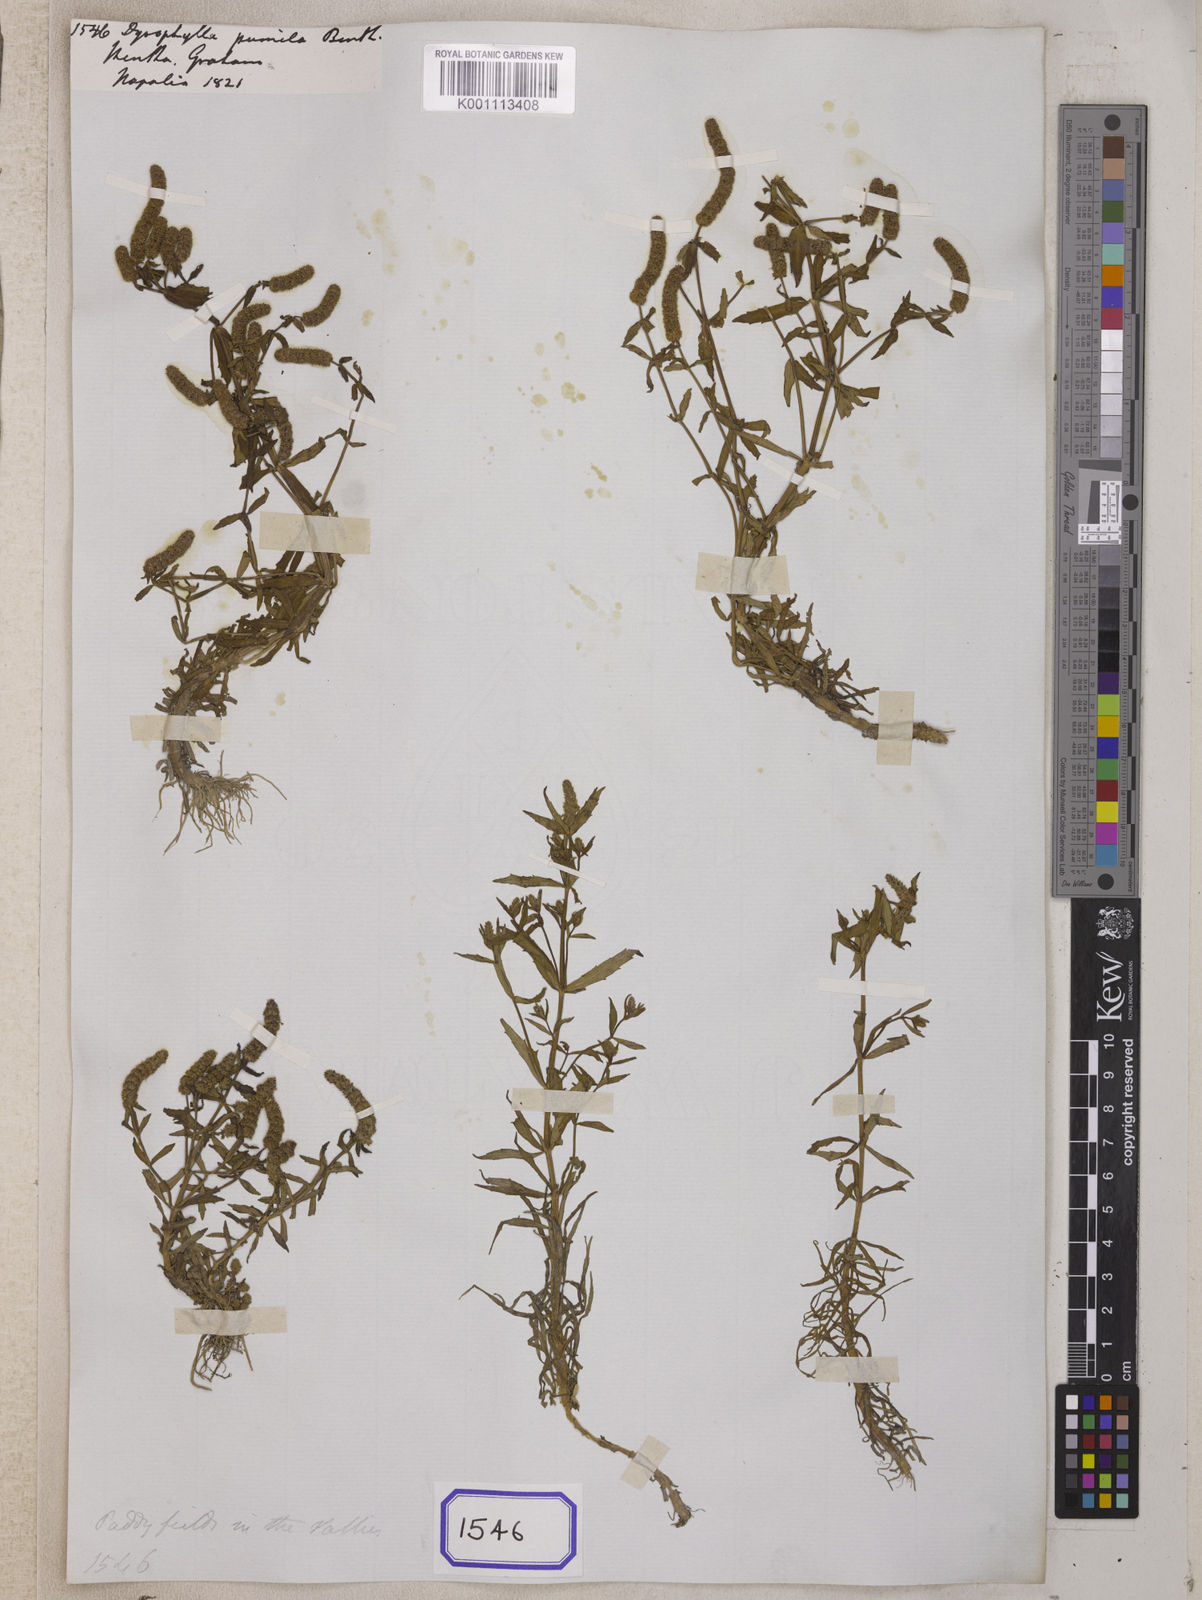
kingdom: Plantae
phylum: Tracheophyta
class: Magnoliopsida
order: Lamiales
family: Lamiaceae
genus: Pogostemon
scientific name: Pogostemon
